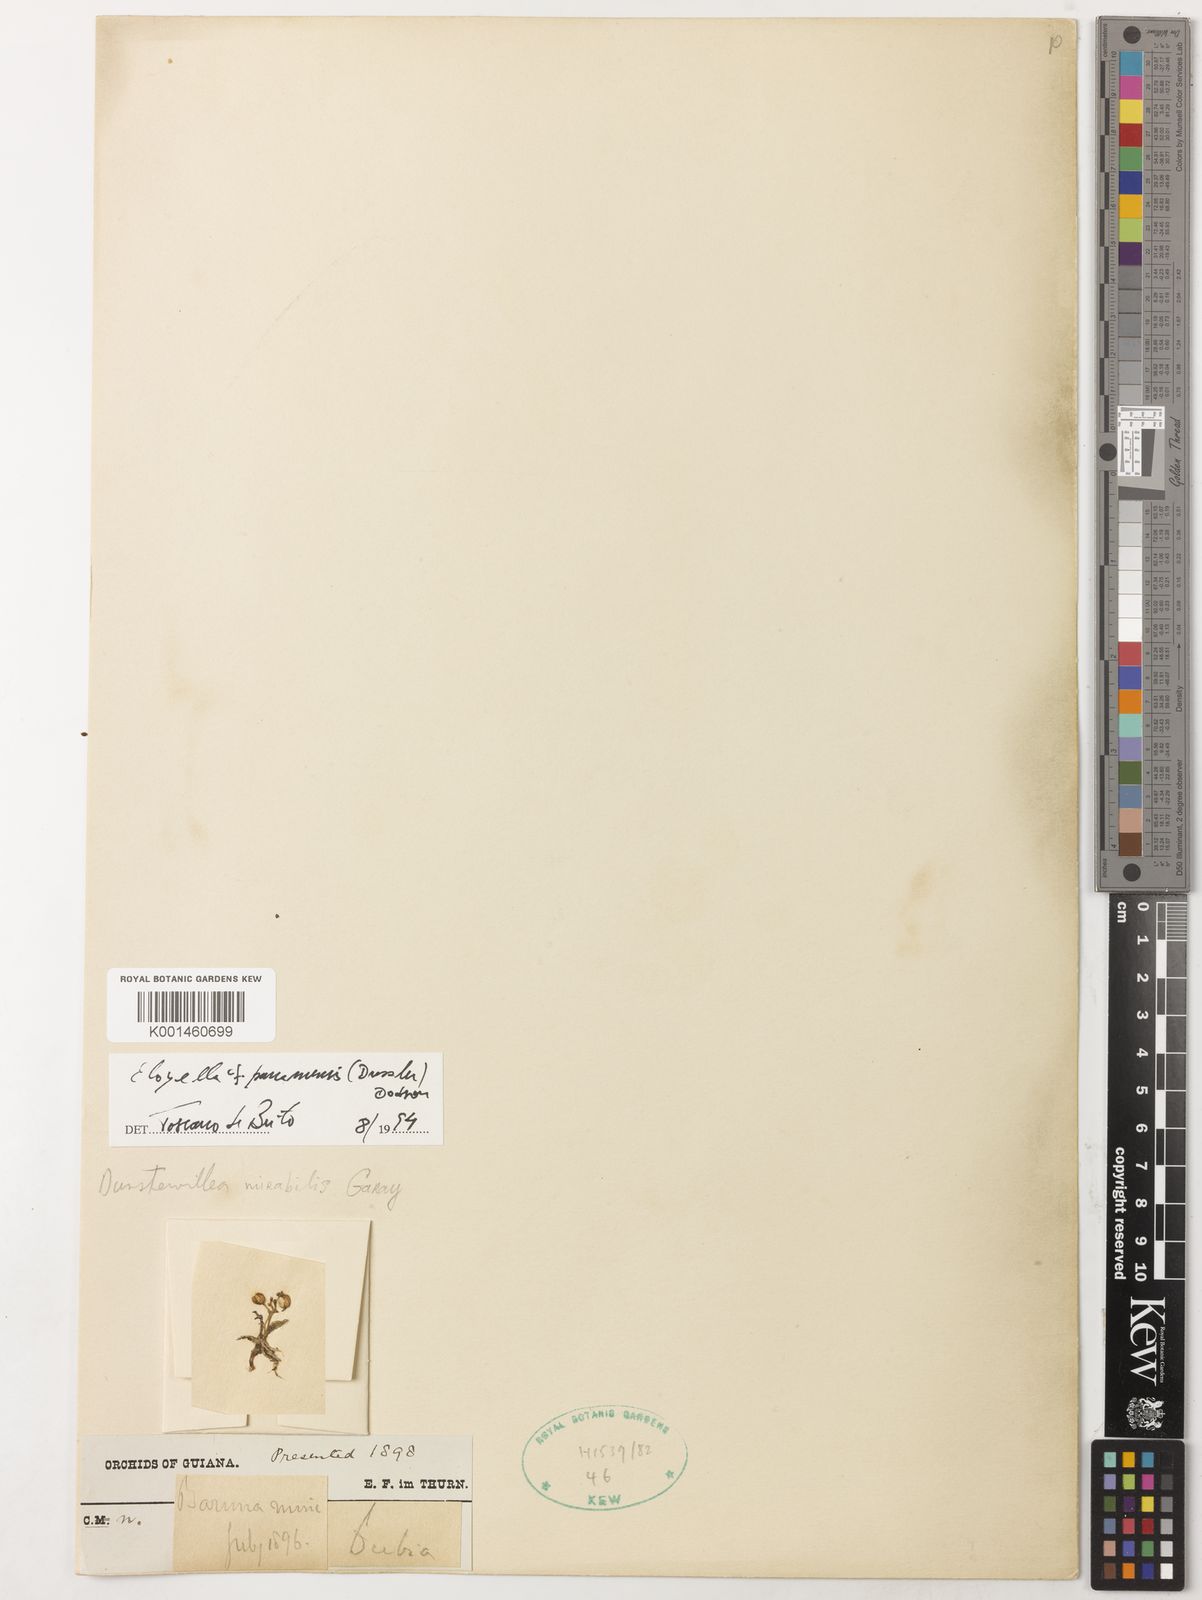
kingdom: Plantae
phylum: Tracheophyta
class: Liliopsida
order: Asparagales
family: Orchidaceae
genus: Eloyella
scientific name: Eloyella panamensis
